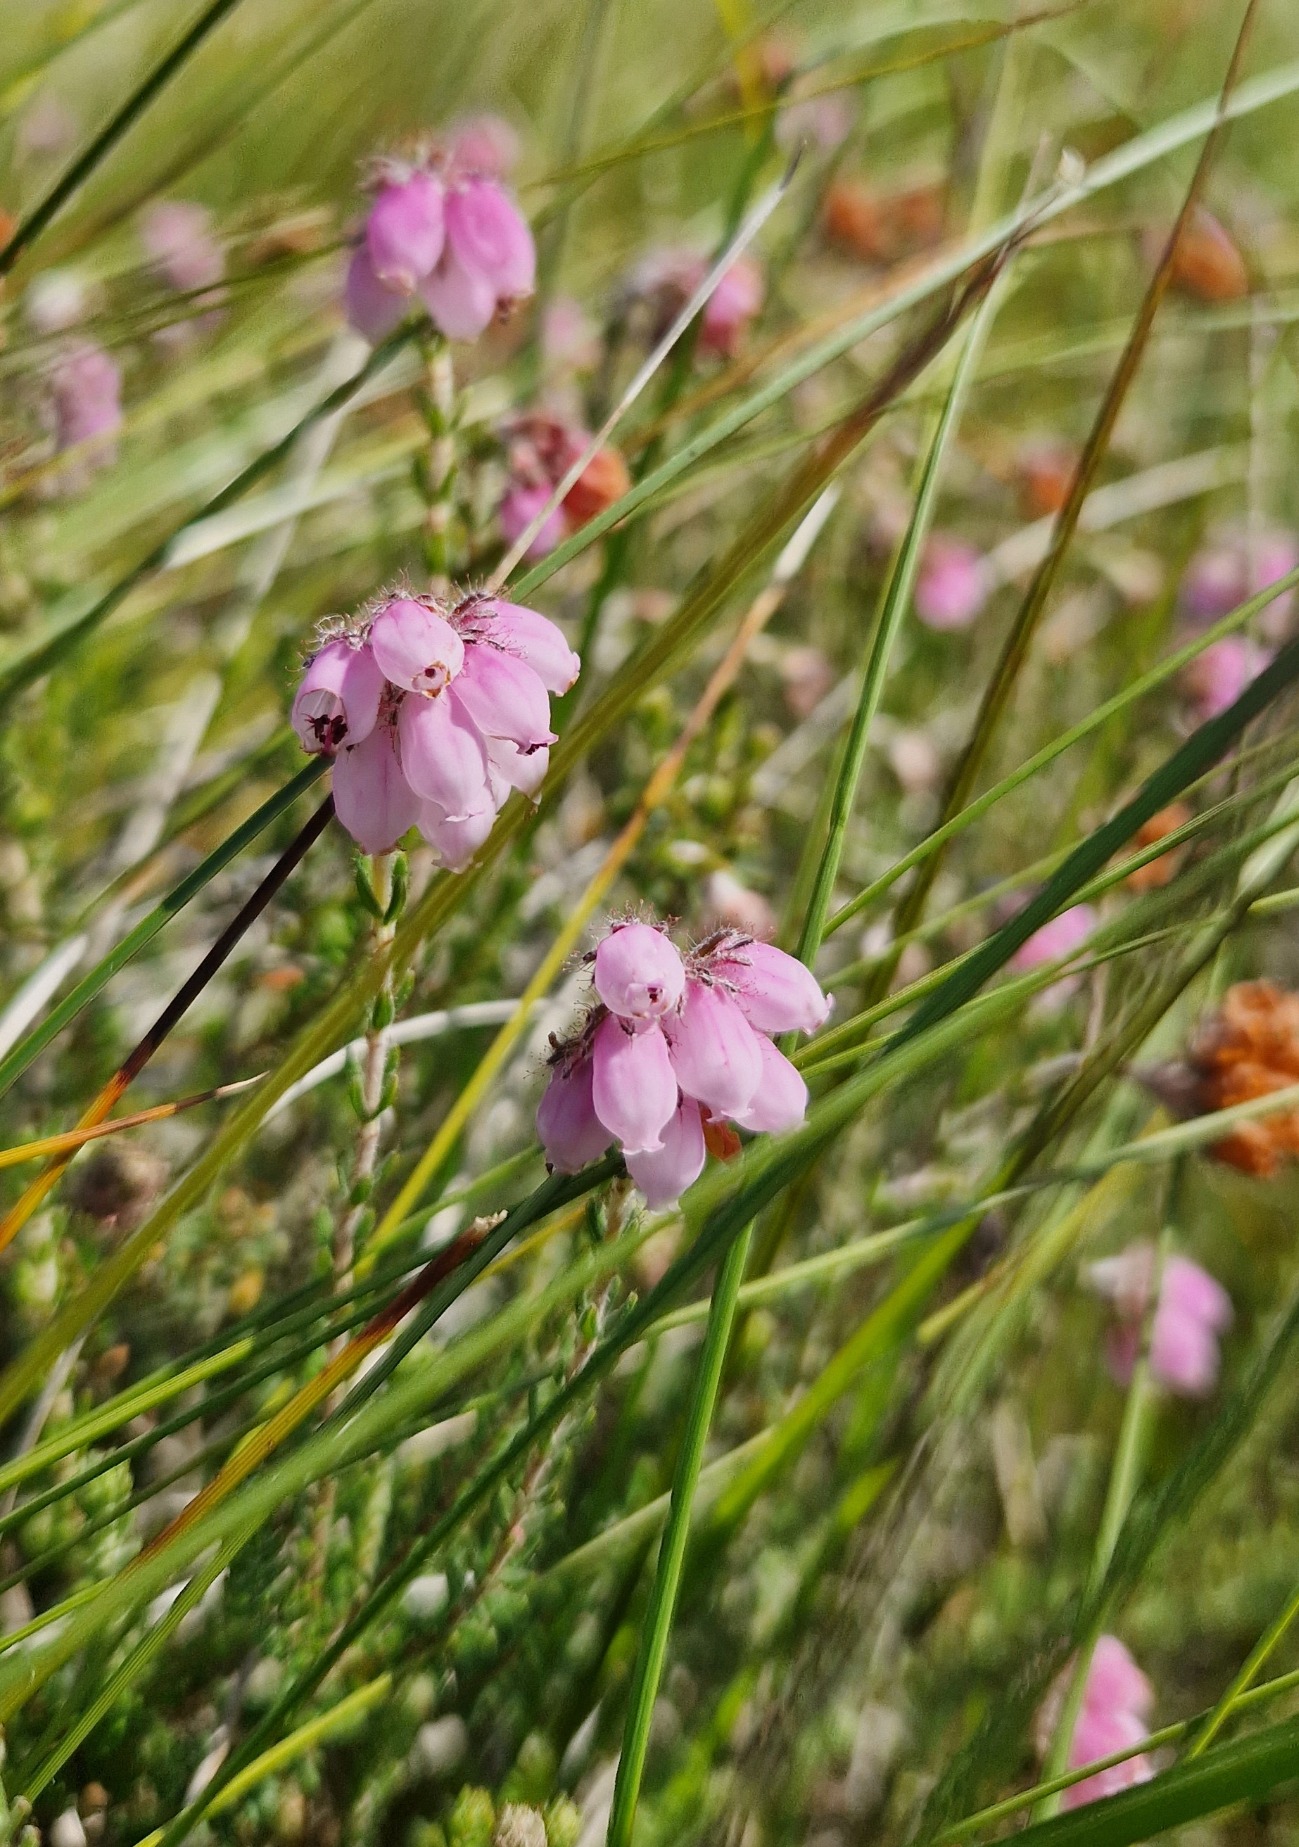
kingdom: Plantae
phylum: Tracheophyta
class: Magnoliopsida
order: Ericales
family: Ericaceae
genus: Erica
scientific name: Erica tetralix
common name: Klokkelyng
